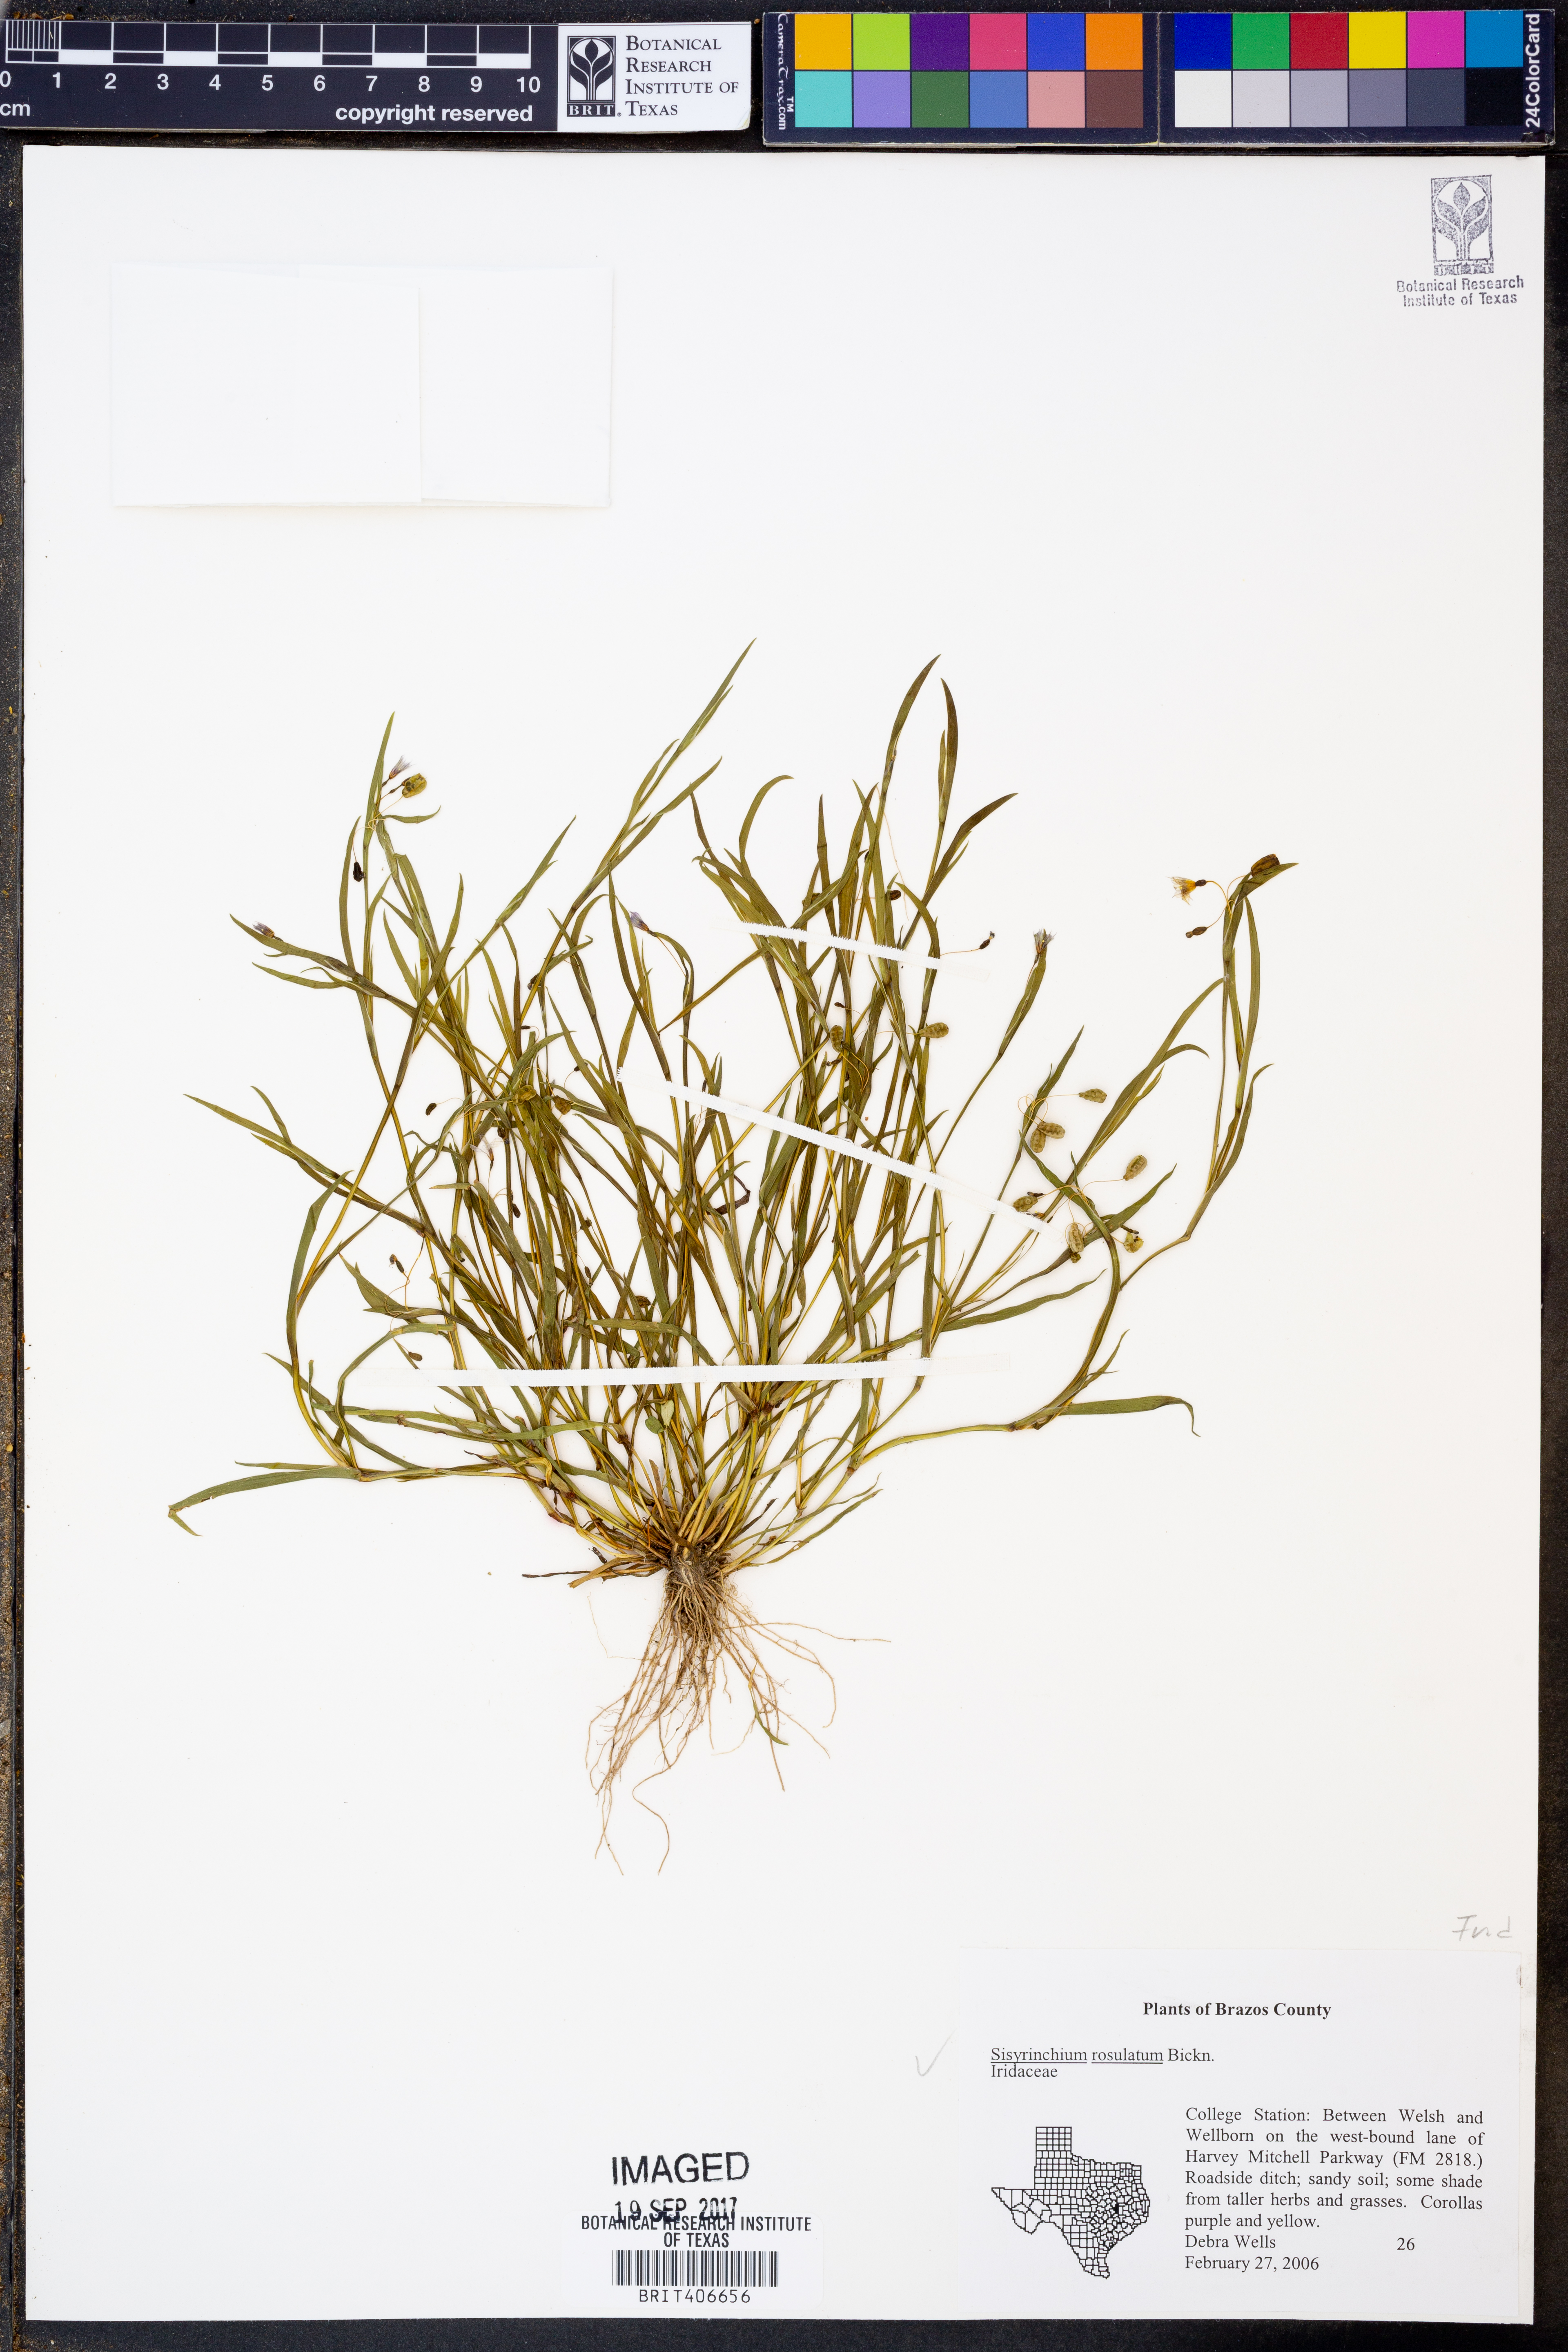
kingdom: Plantae
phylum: Tracheophyta
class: Liliopsida
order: Asparagales
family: Iridaceae
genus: Sisyrinchium
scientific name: Sisyrinchium rosulatum
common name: Annual blue-eyed grass
